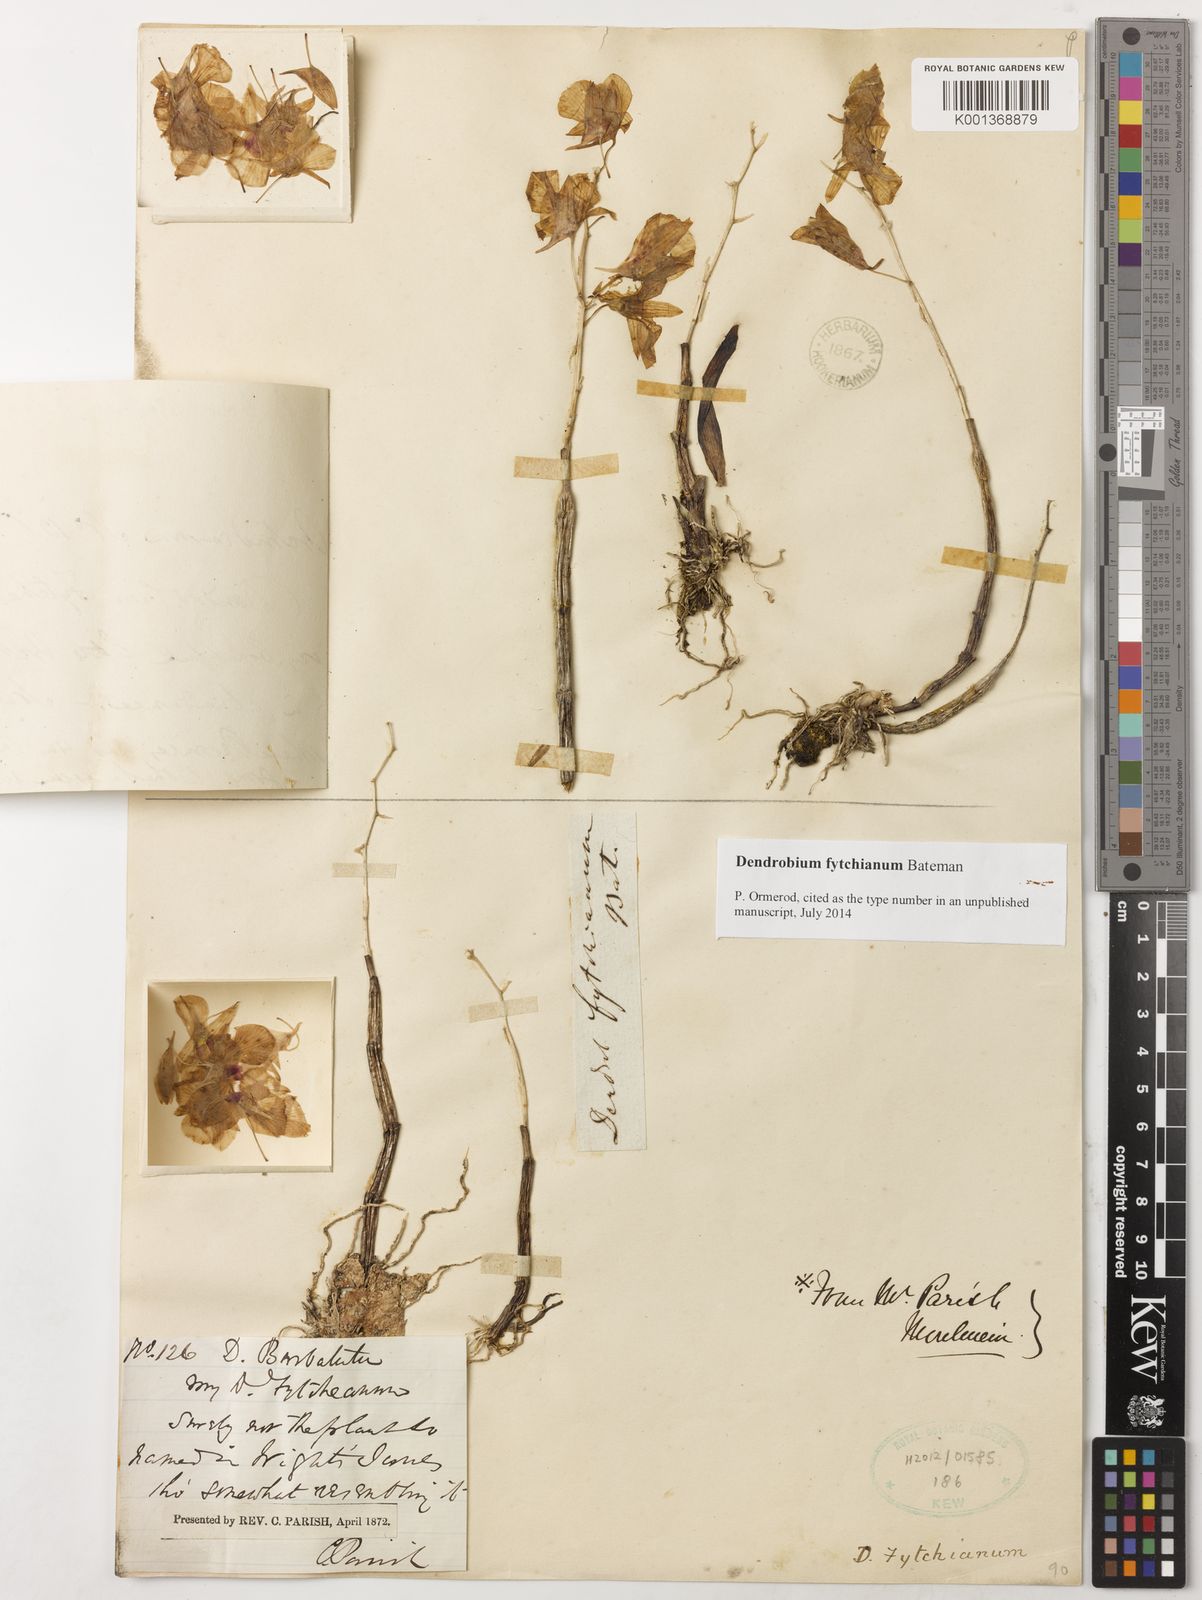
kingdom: Plantae
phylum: Tracheophyta
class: Liliopsida
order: Asparagales
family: Orchidaceae
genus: Dendrobium
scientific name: Dendrobium fytchianum
